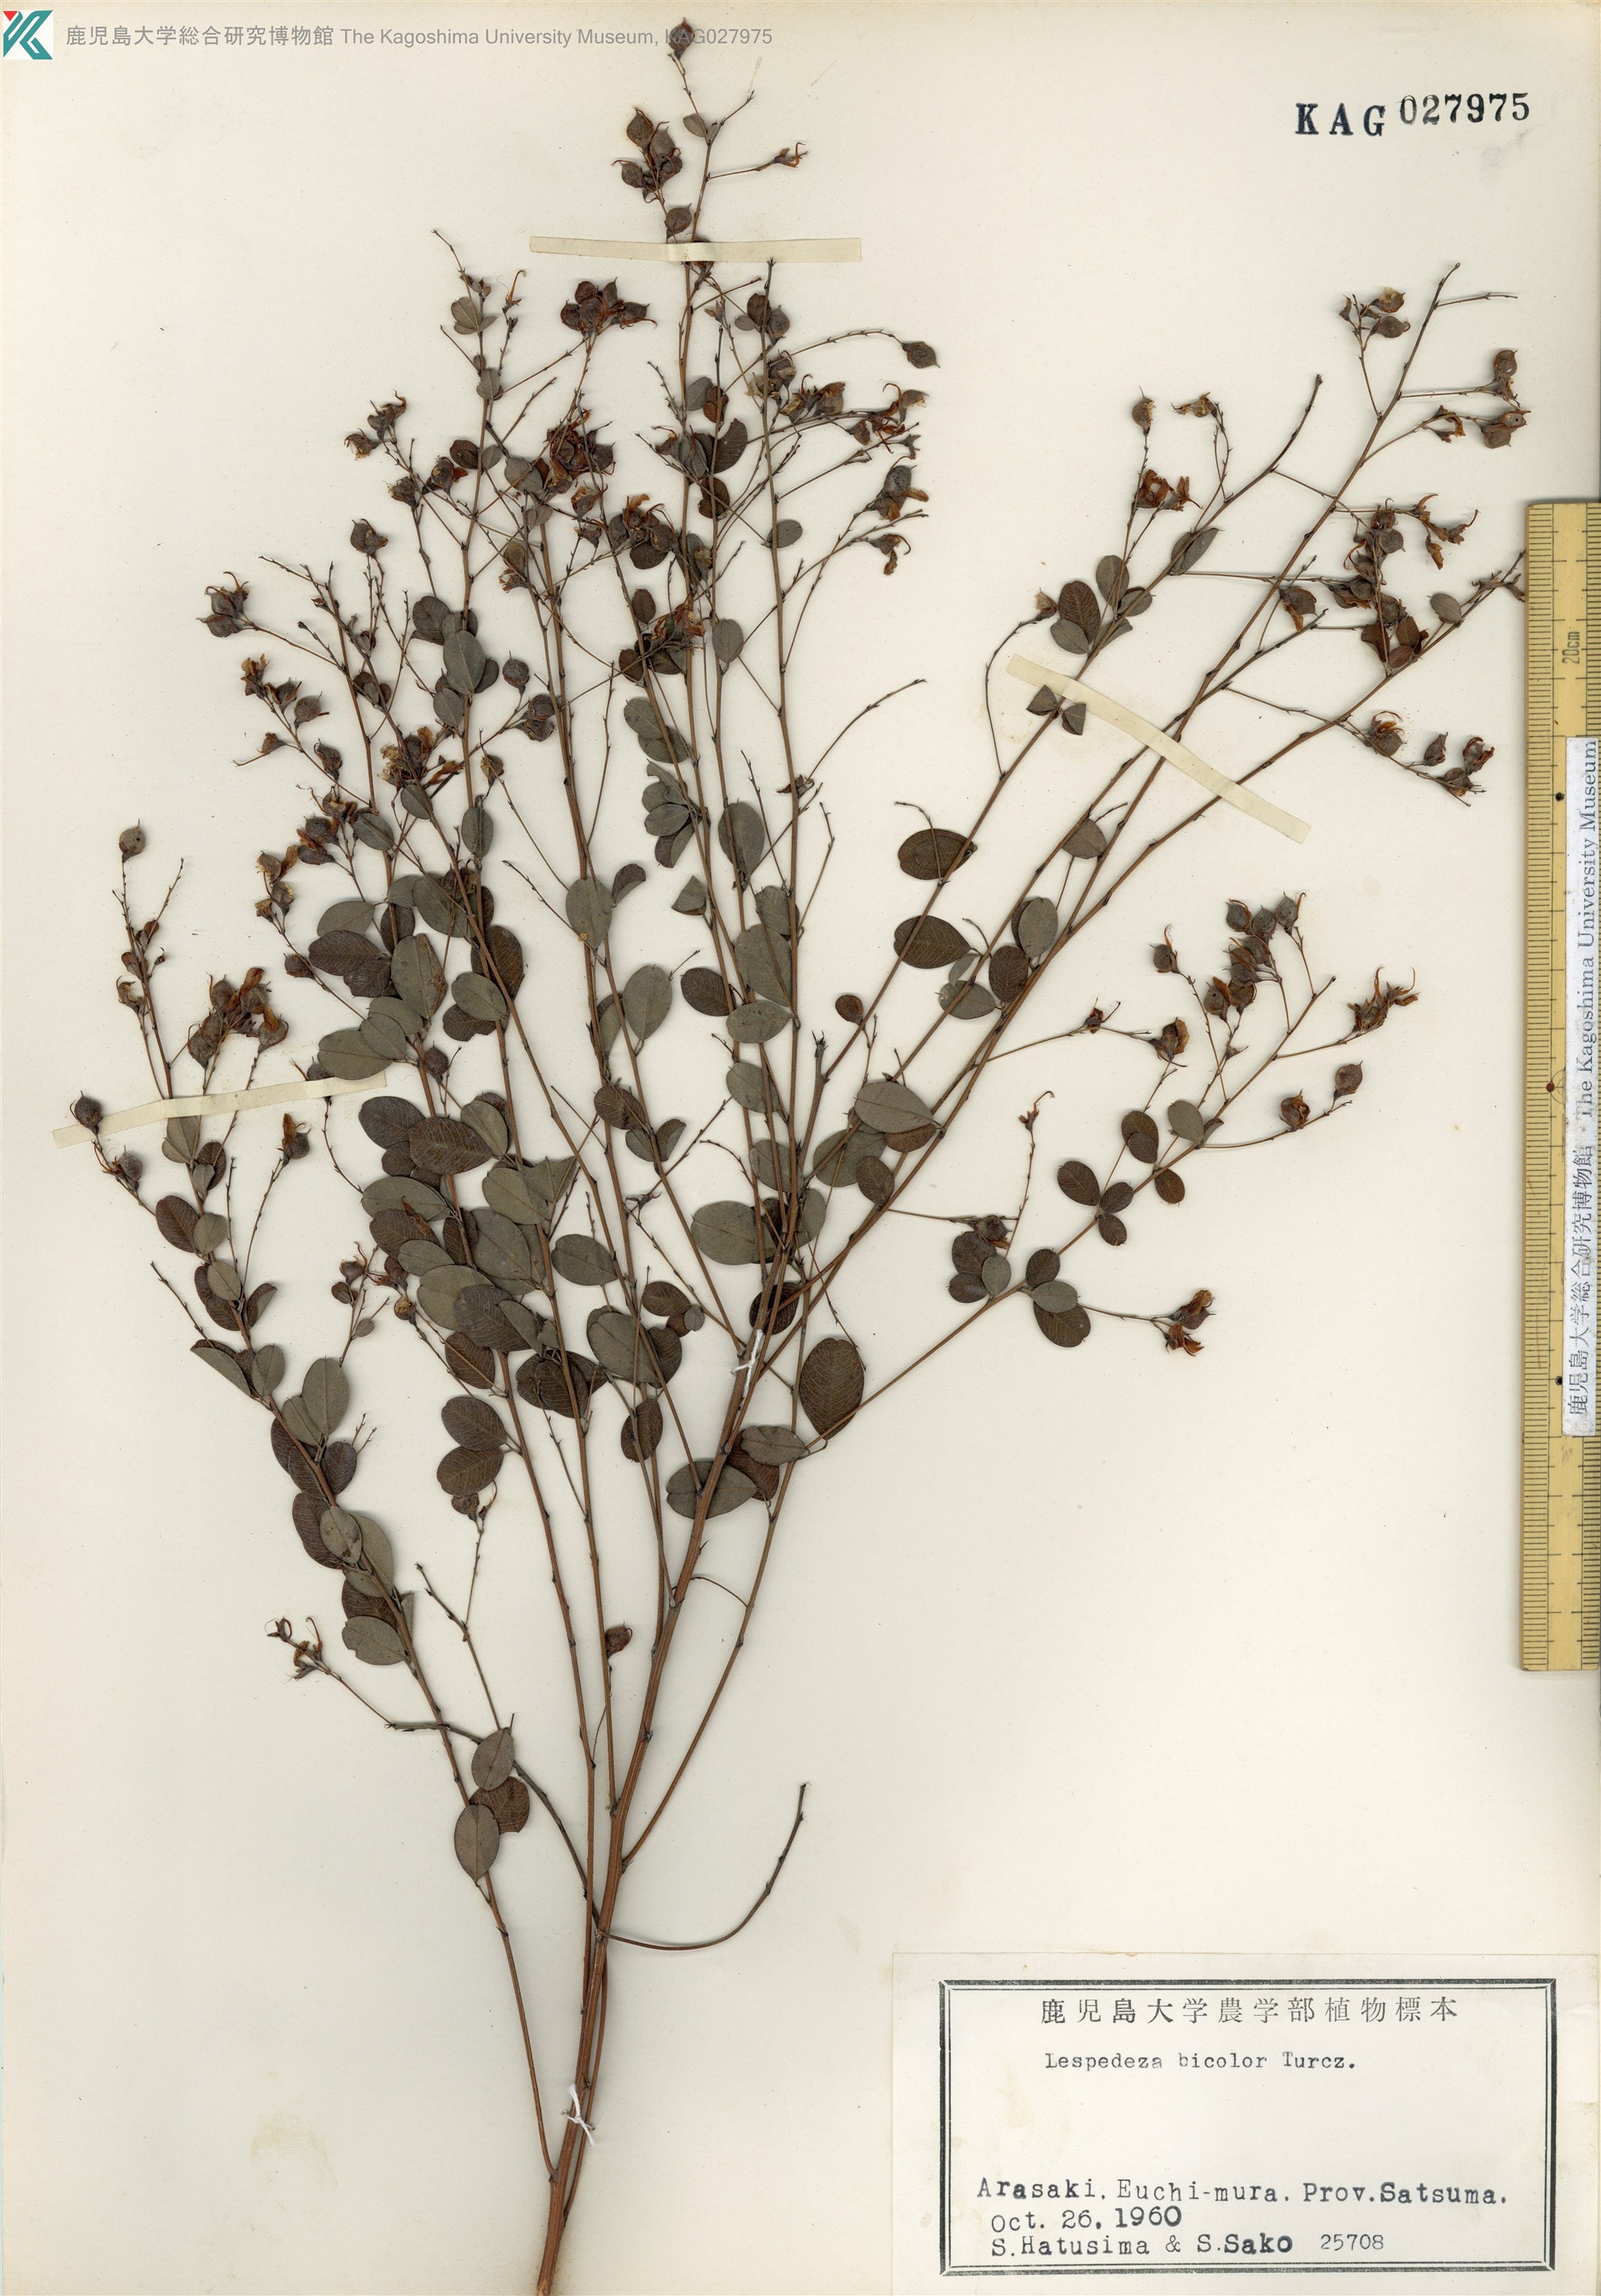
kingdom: Plantae
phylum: Tracheophyta
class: Magnoliopsida
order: Fabales
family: Fabaceae
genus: Lespedeza
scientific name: Lespedeza bicolor
